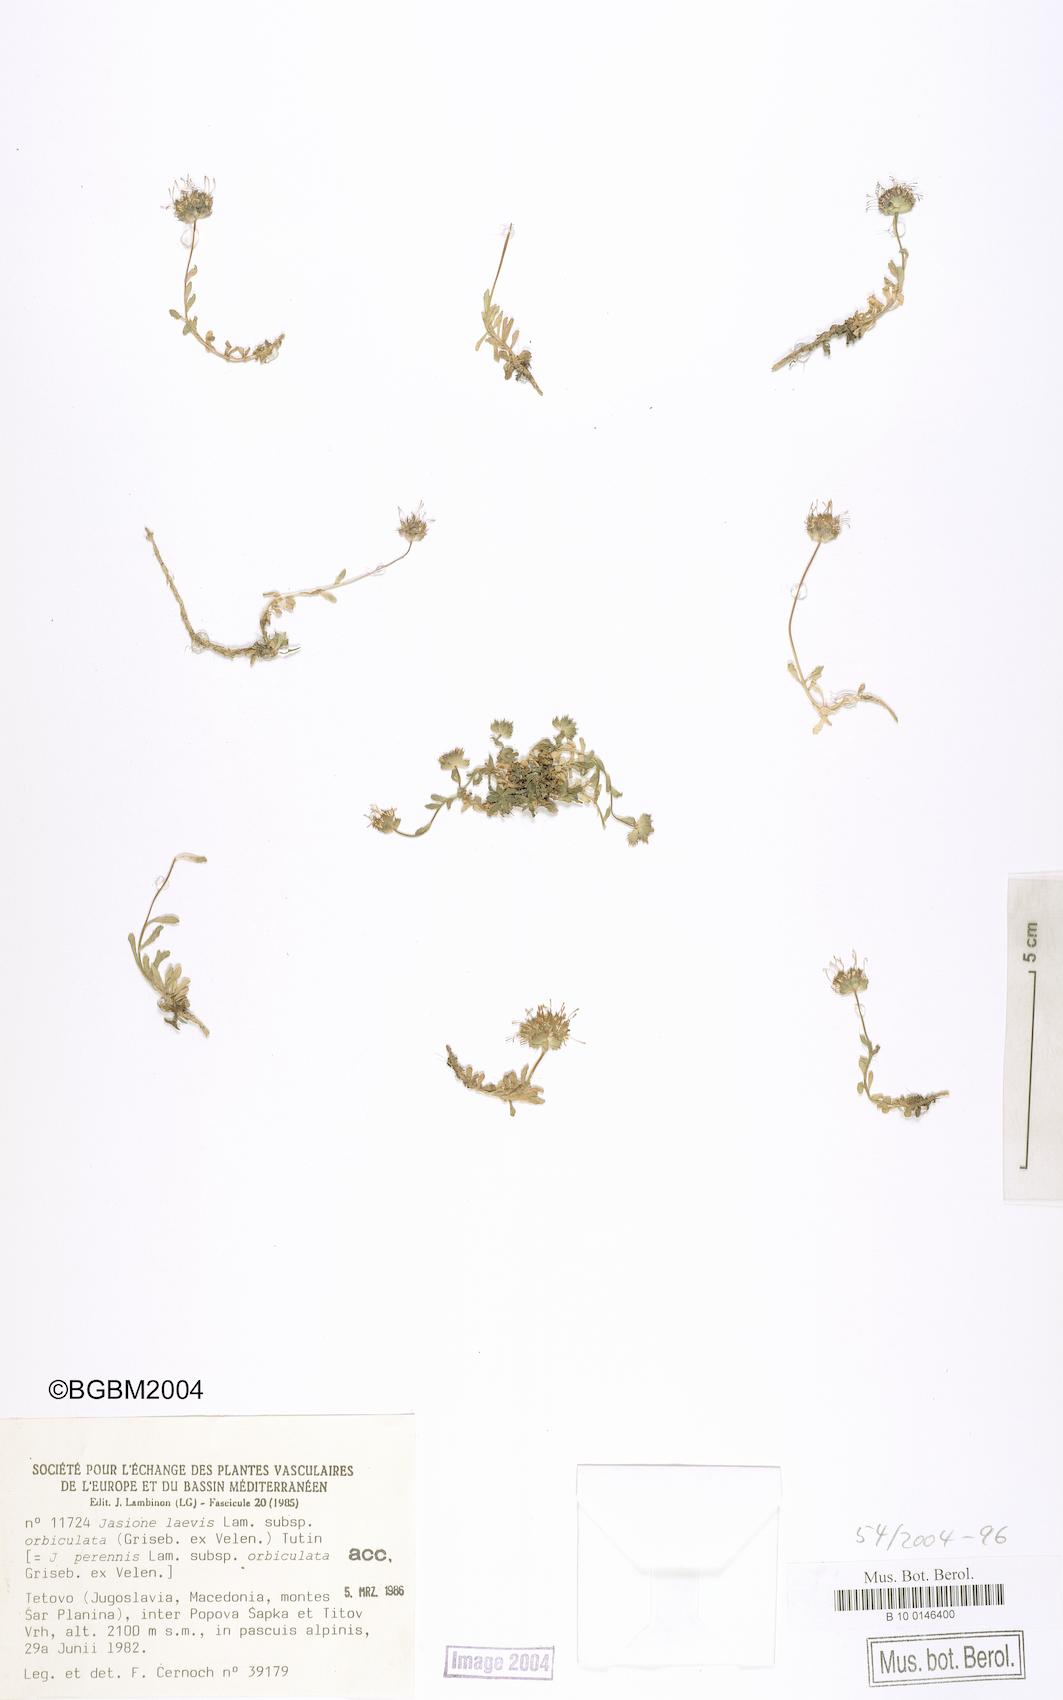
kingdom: Plantae
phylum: Tracheophyta
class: Magnoliopsida
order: Asterales
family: Campanulaceae
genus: Jasione
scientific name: Jasione orbiculata
